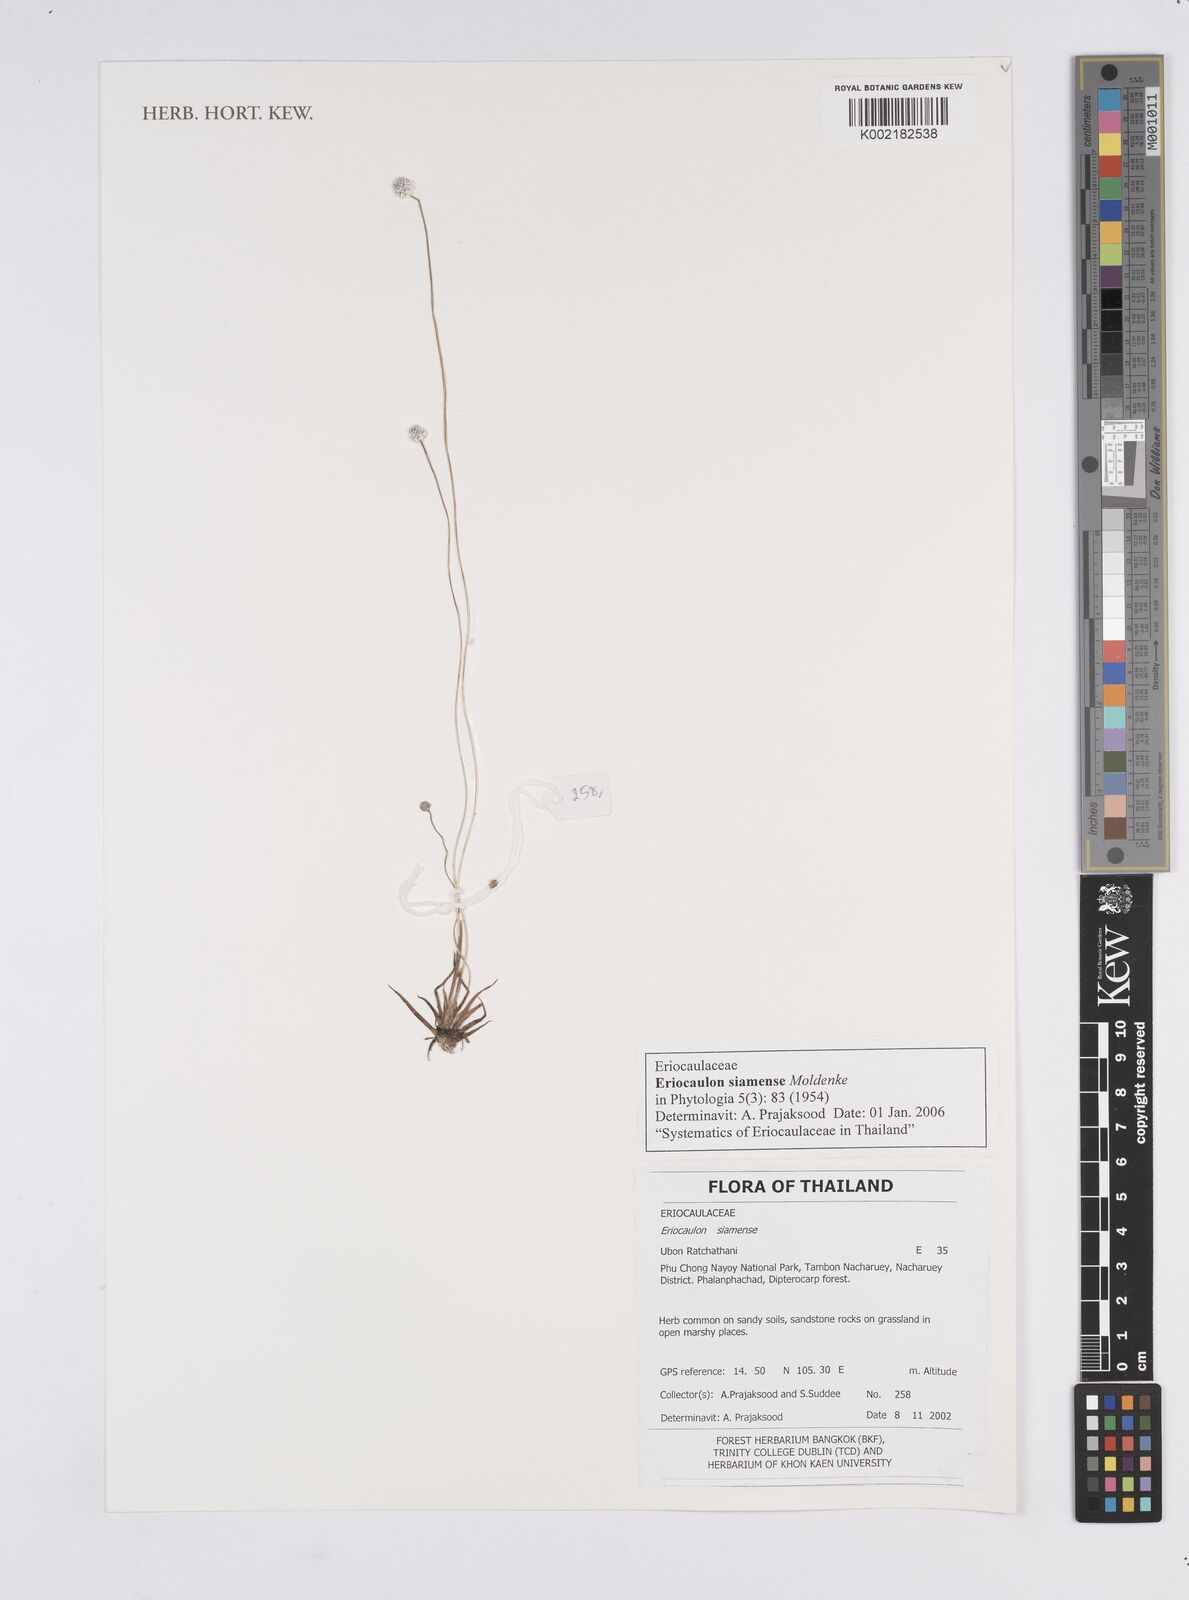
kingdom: Plantae
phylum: Tracheophyta
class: Liliopsida
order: Poales
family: Eriocaulaceae
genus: Eriocaulon
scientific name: Eriocaulon siamense
